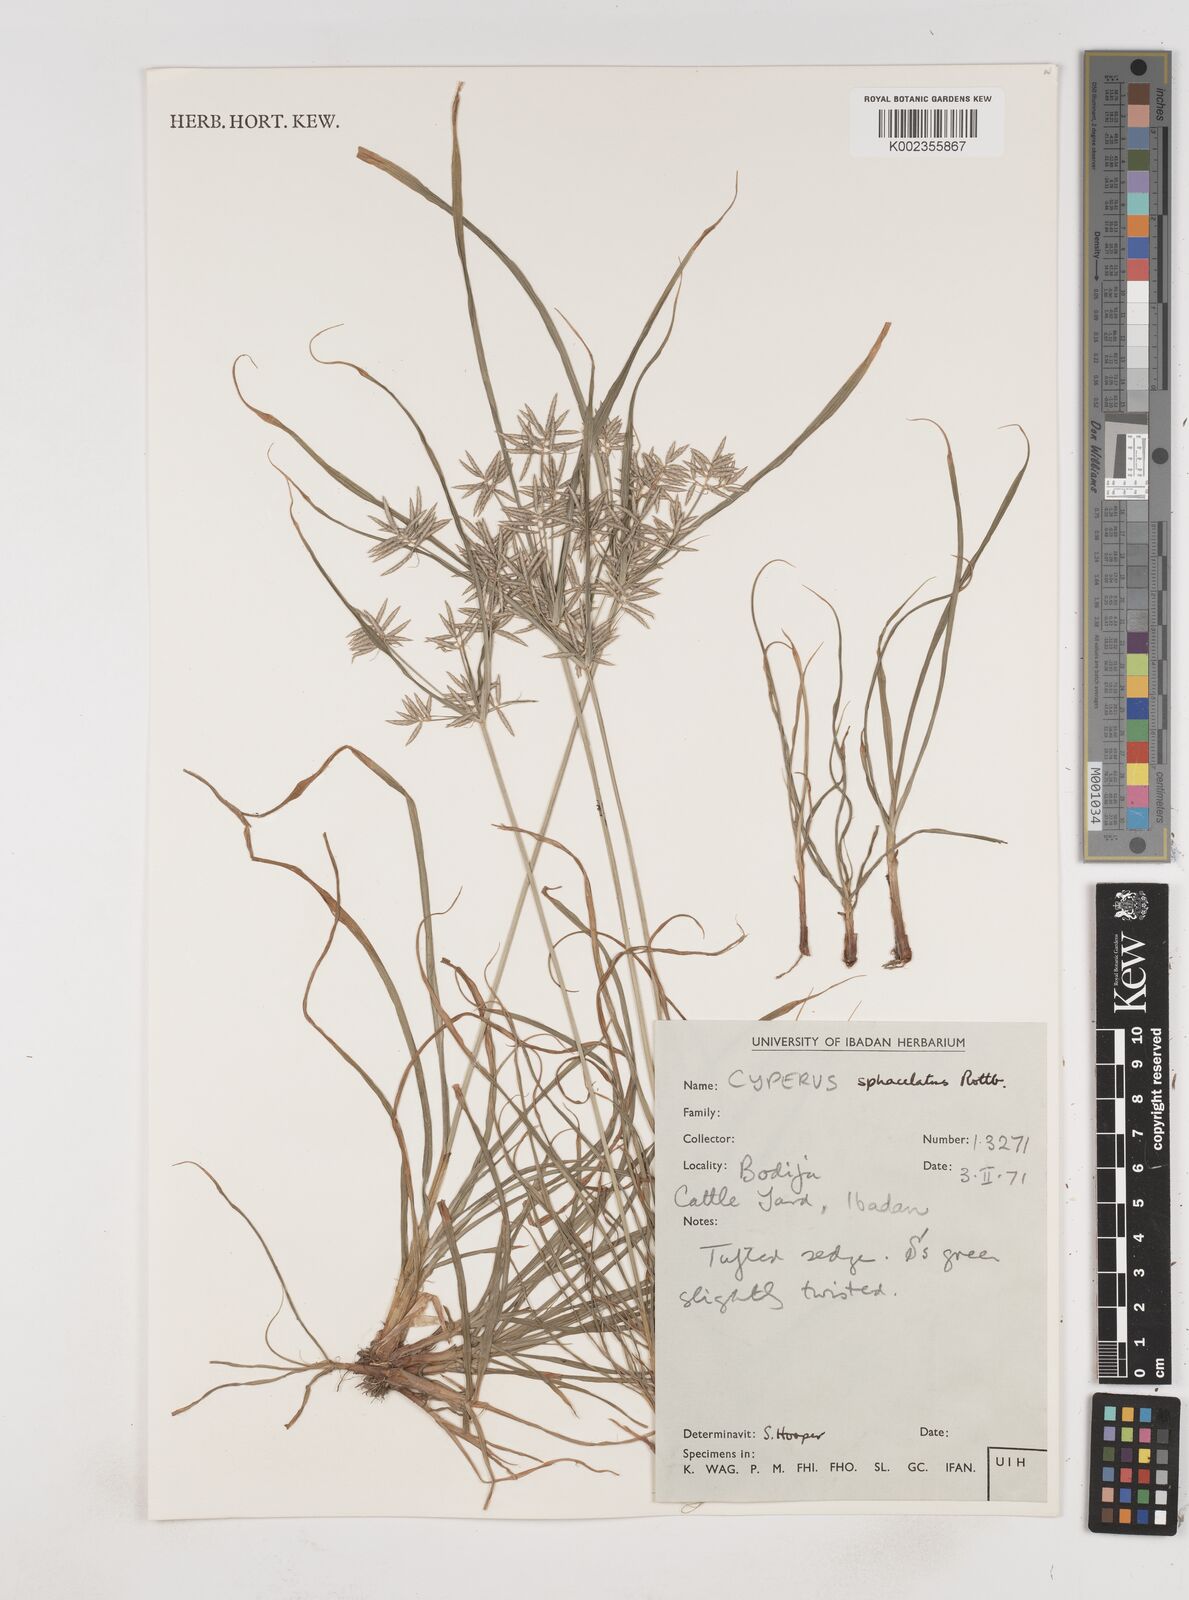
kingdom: Plantae
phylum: Tracheophyta
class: Liliopsida
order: Poales
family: Cyperaceae
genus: Cyperus
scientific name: Cyperus sphacelatus
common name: Roadside flatsedge
